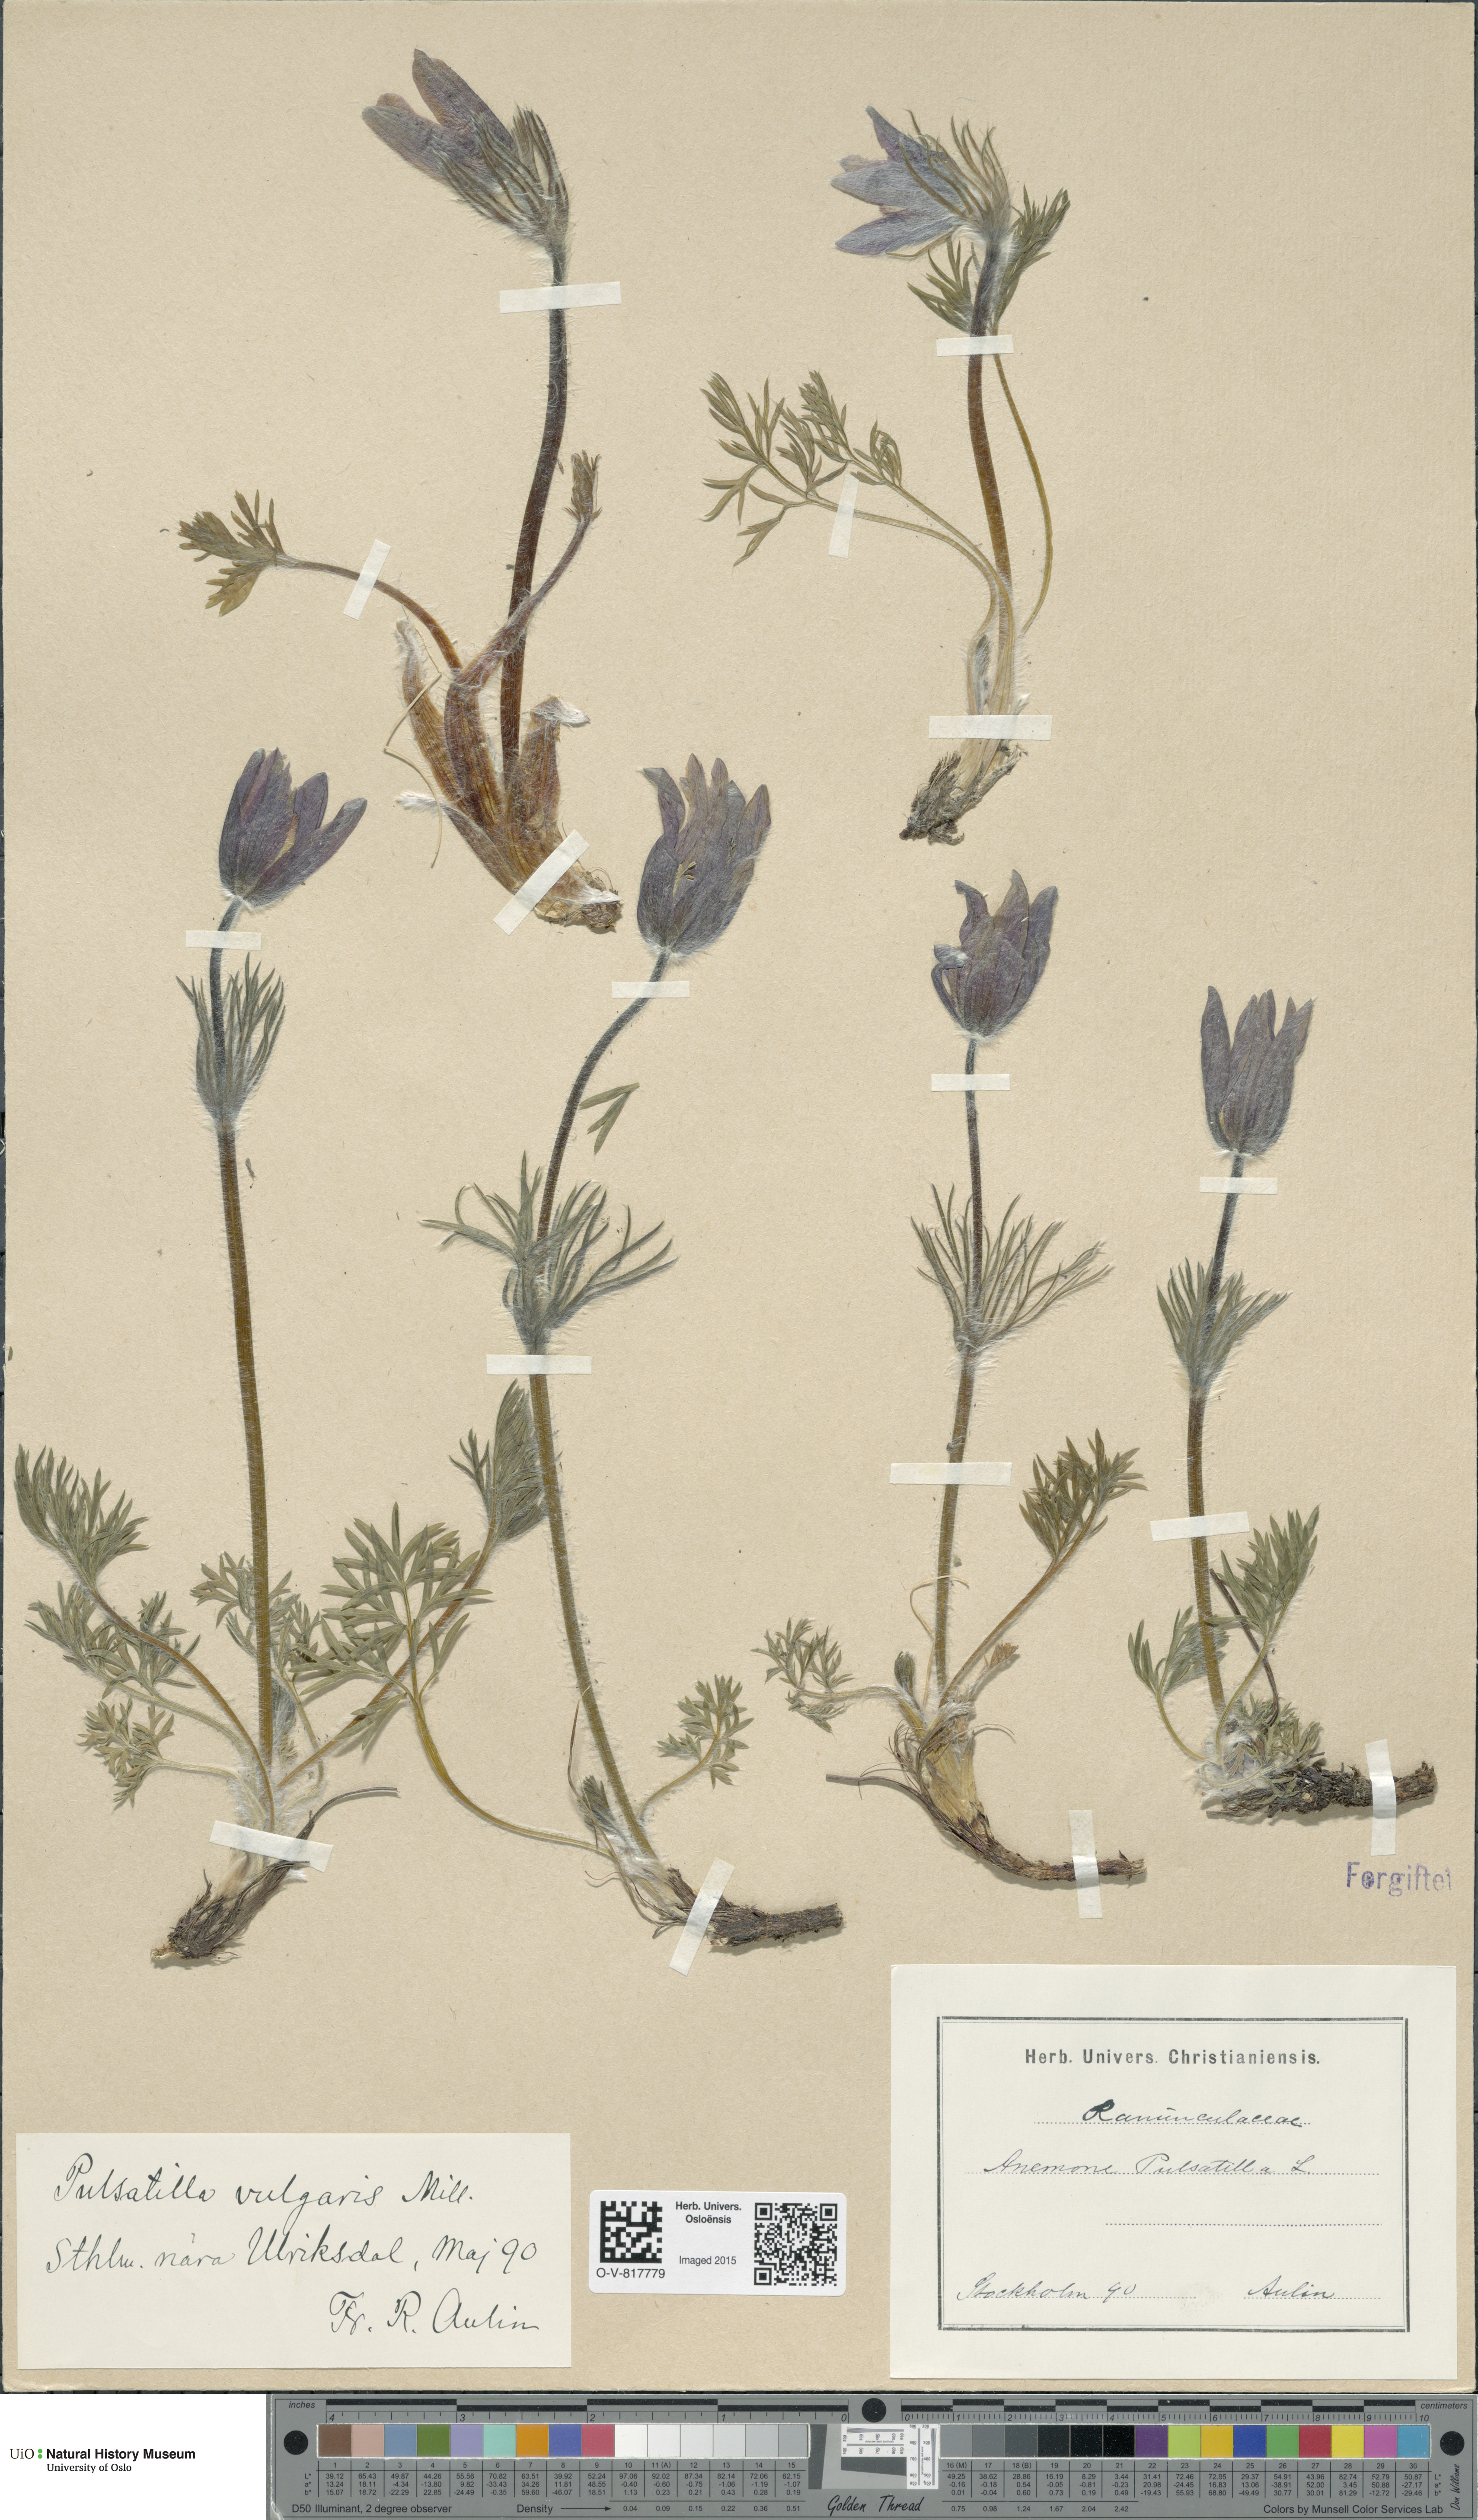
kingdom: Plantae
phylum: Tracheophyta
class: Magnoliopsida
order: Ranunculales
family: Ranunculaceae
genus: Pulsatilla
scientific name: Pulsatilla vulgaris
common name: Pasqueflower
